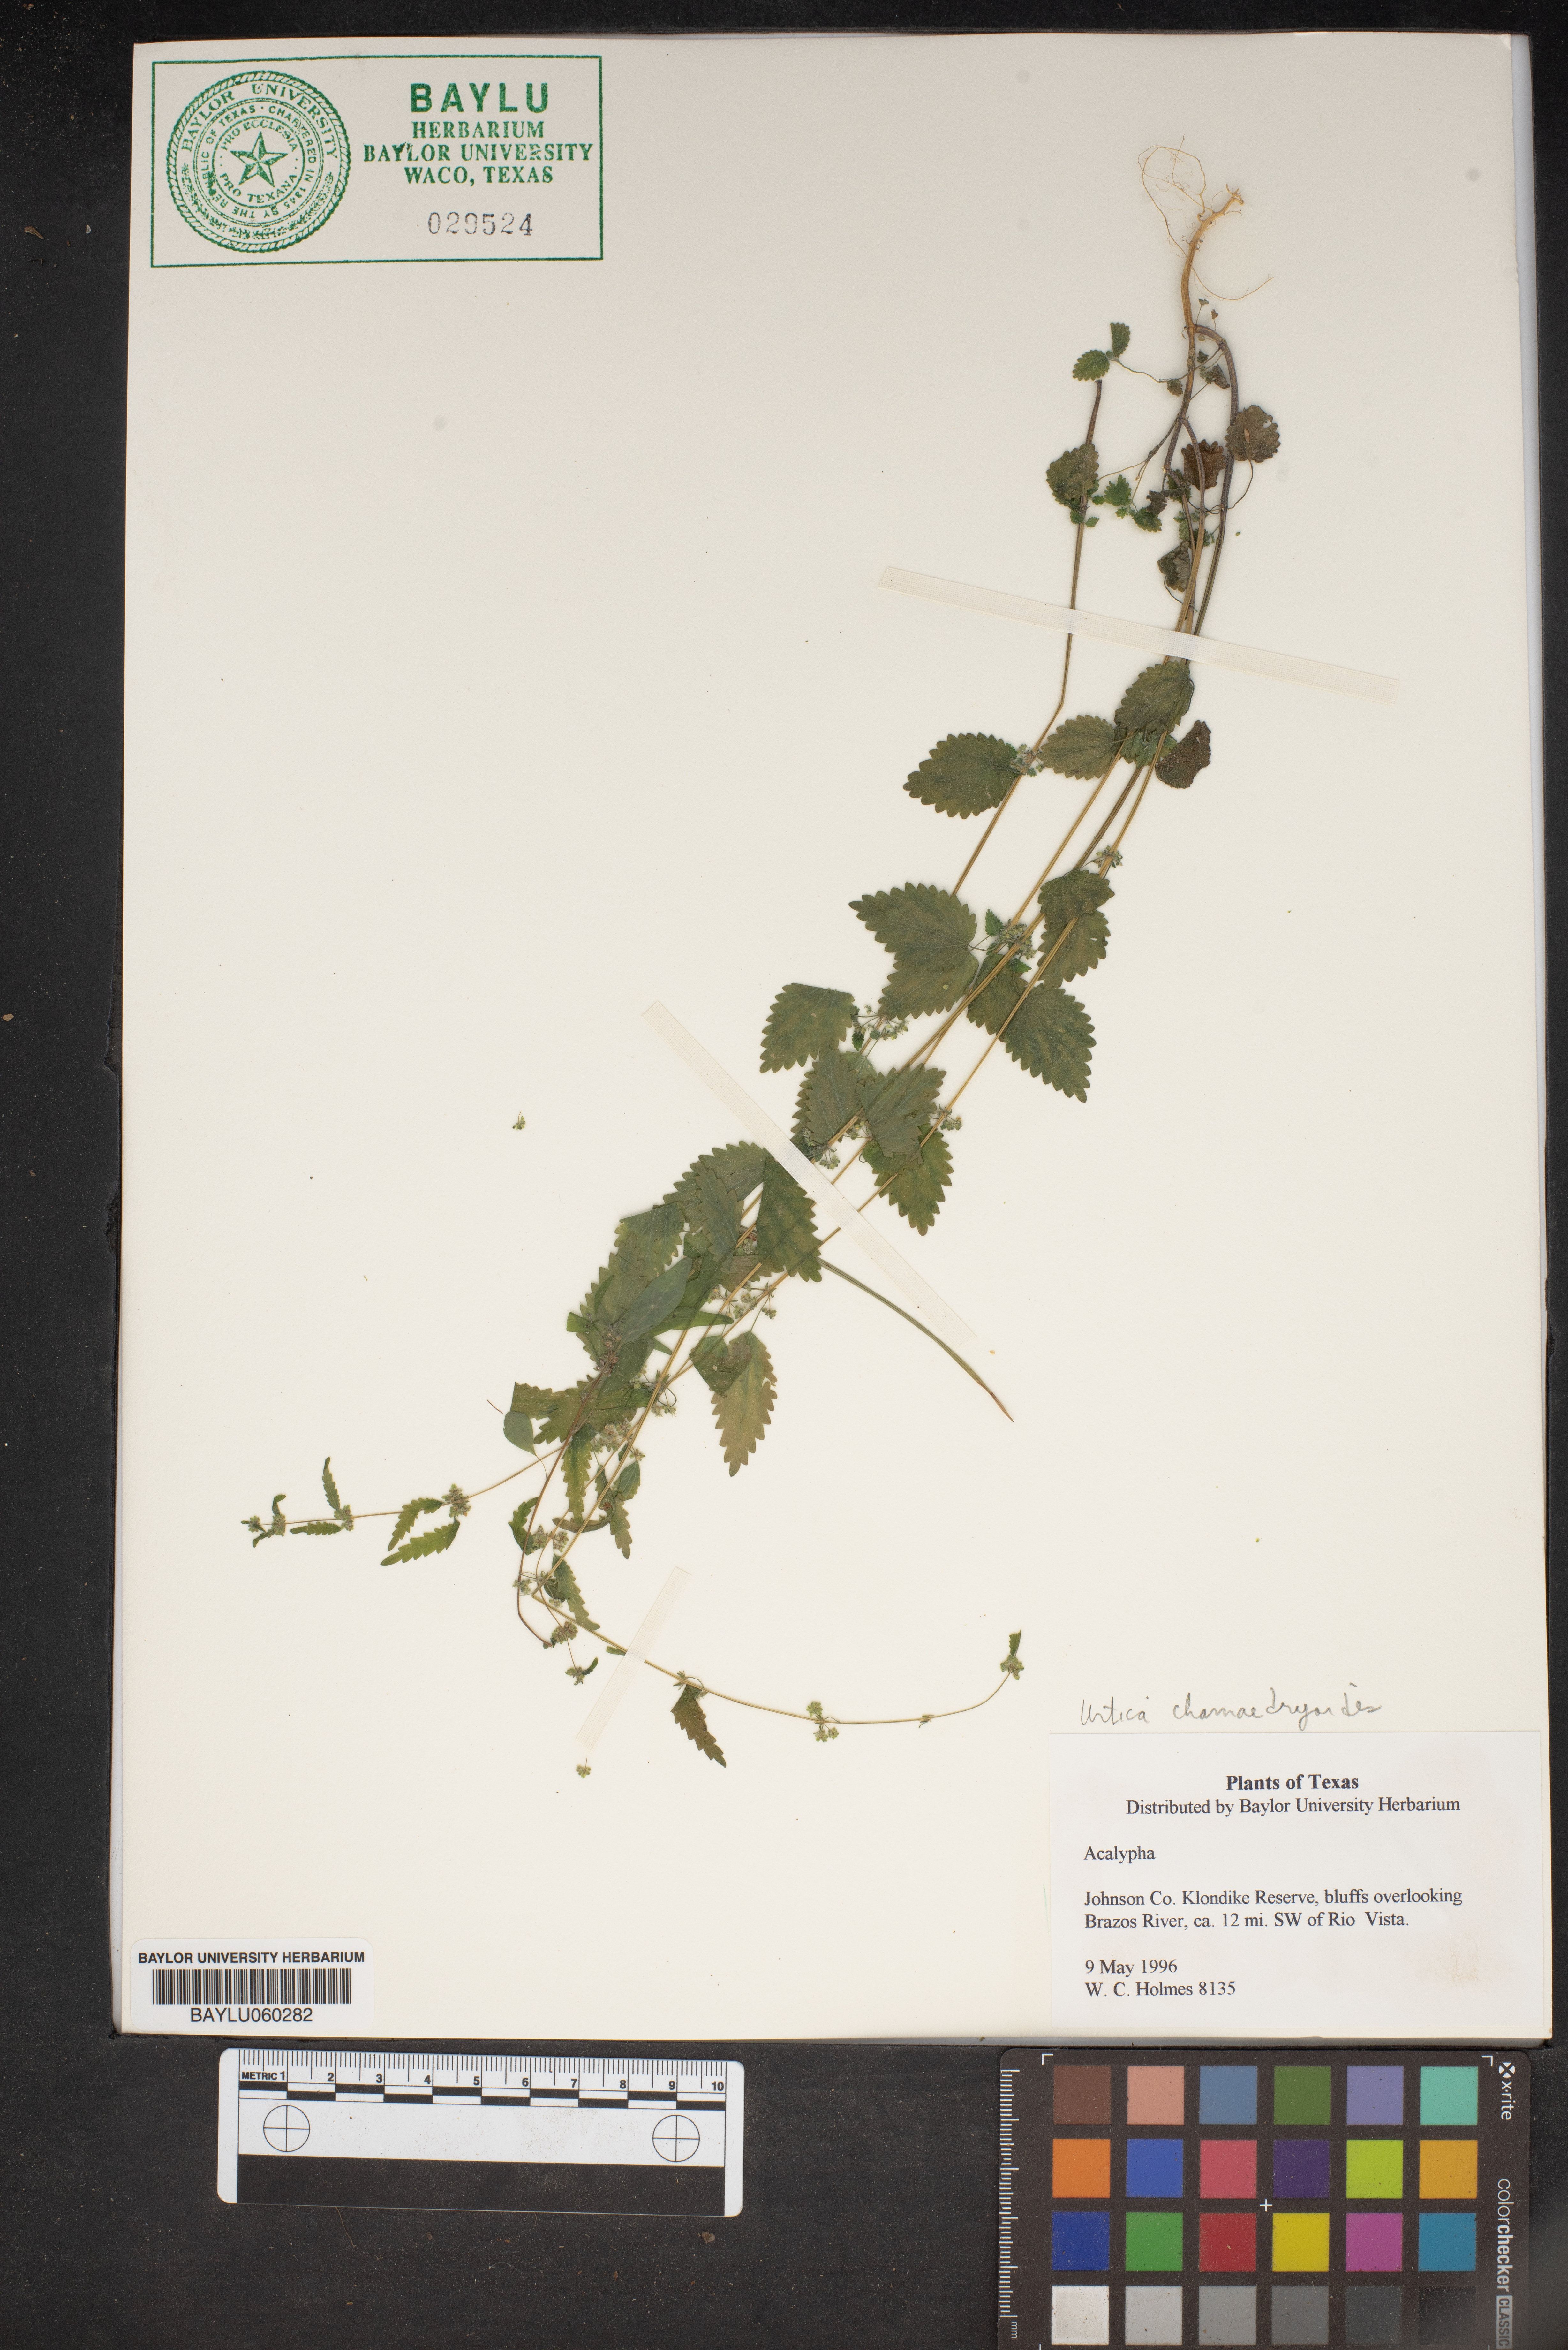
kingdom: Plantae
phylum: Tracheophyta
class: Magnoliopsida
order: Rosales
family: Urticaceae
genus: Urtica
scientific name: Urtica chamaedryoides
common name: Heart-leaf nettle
